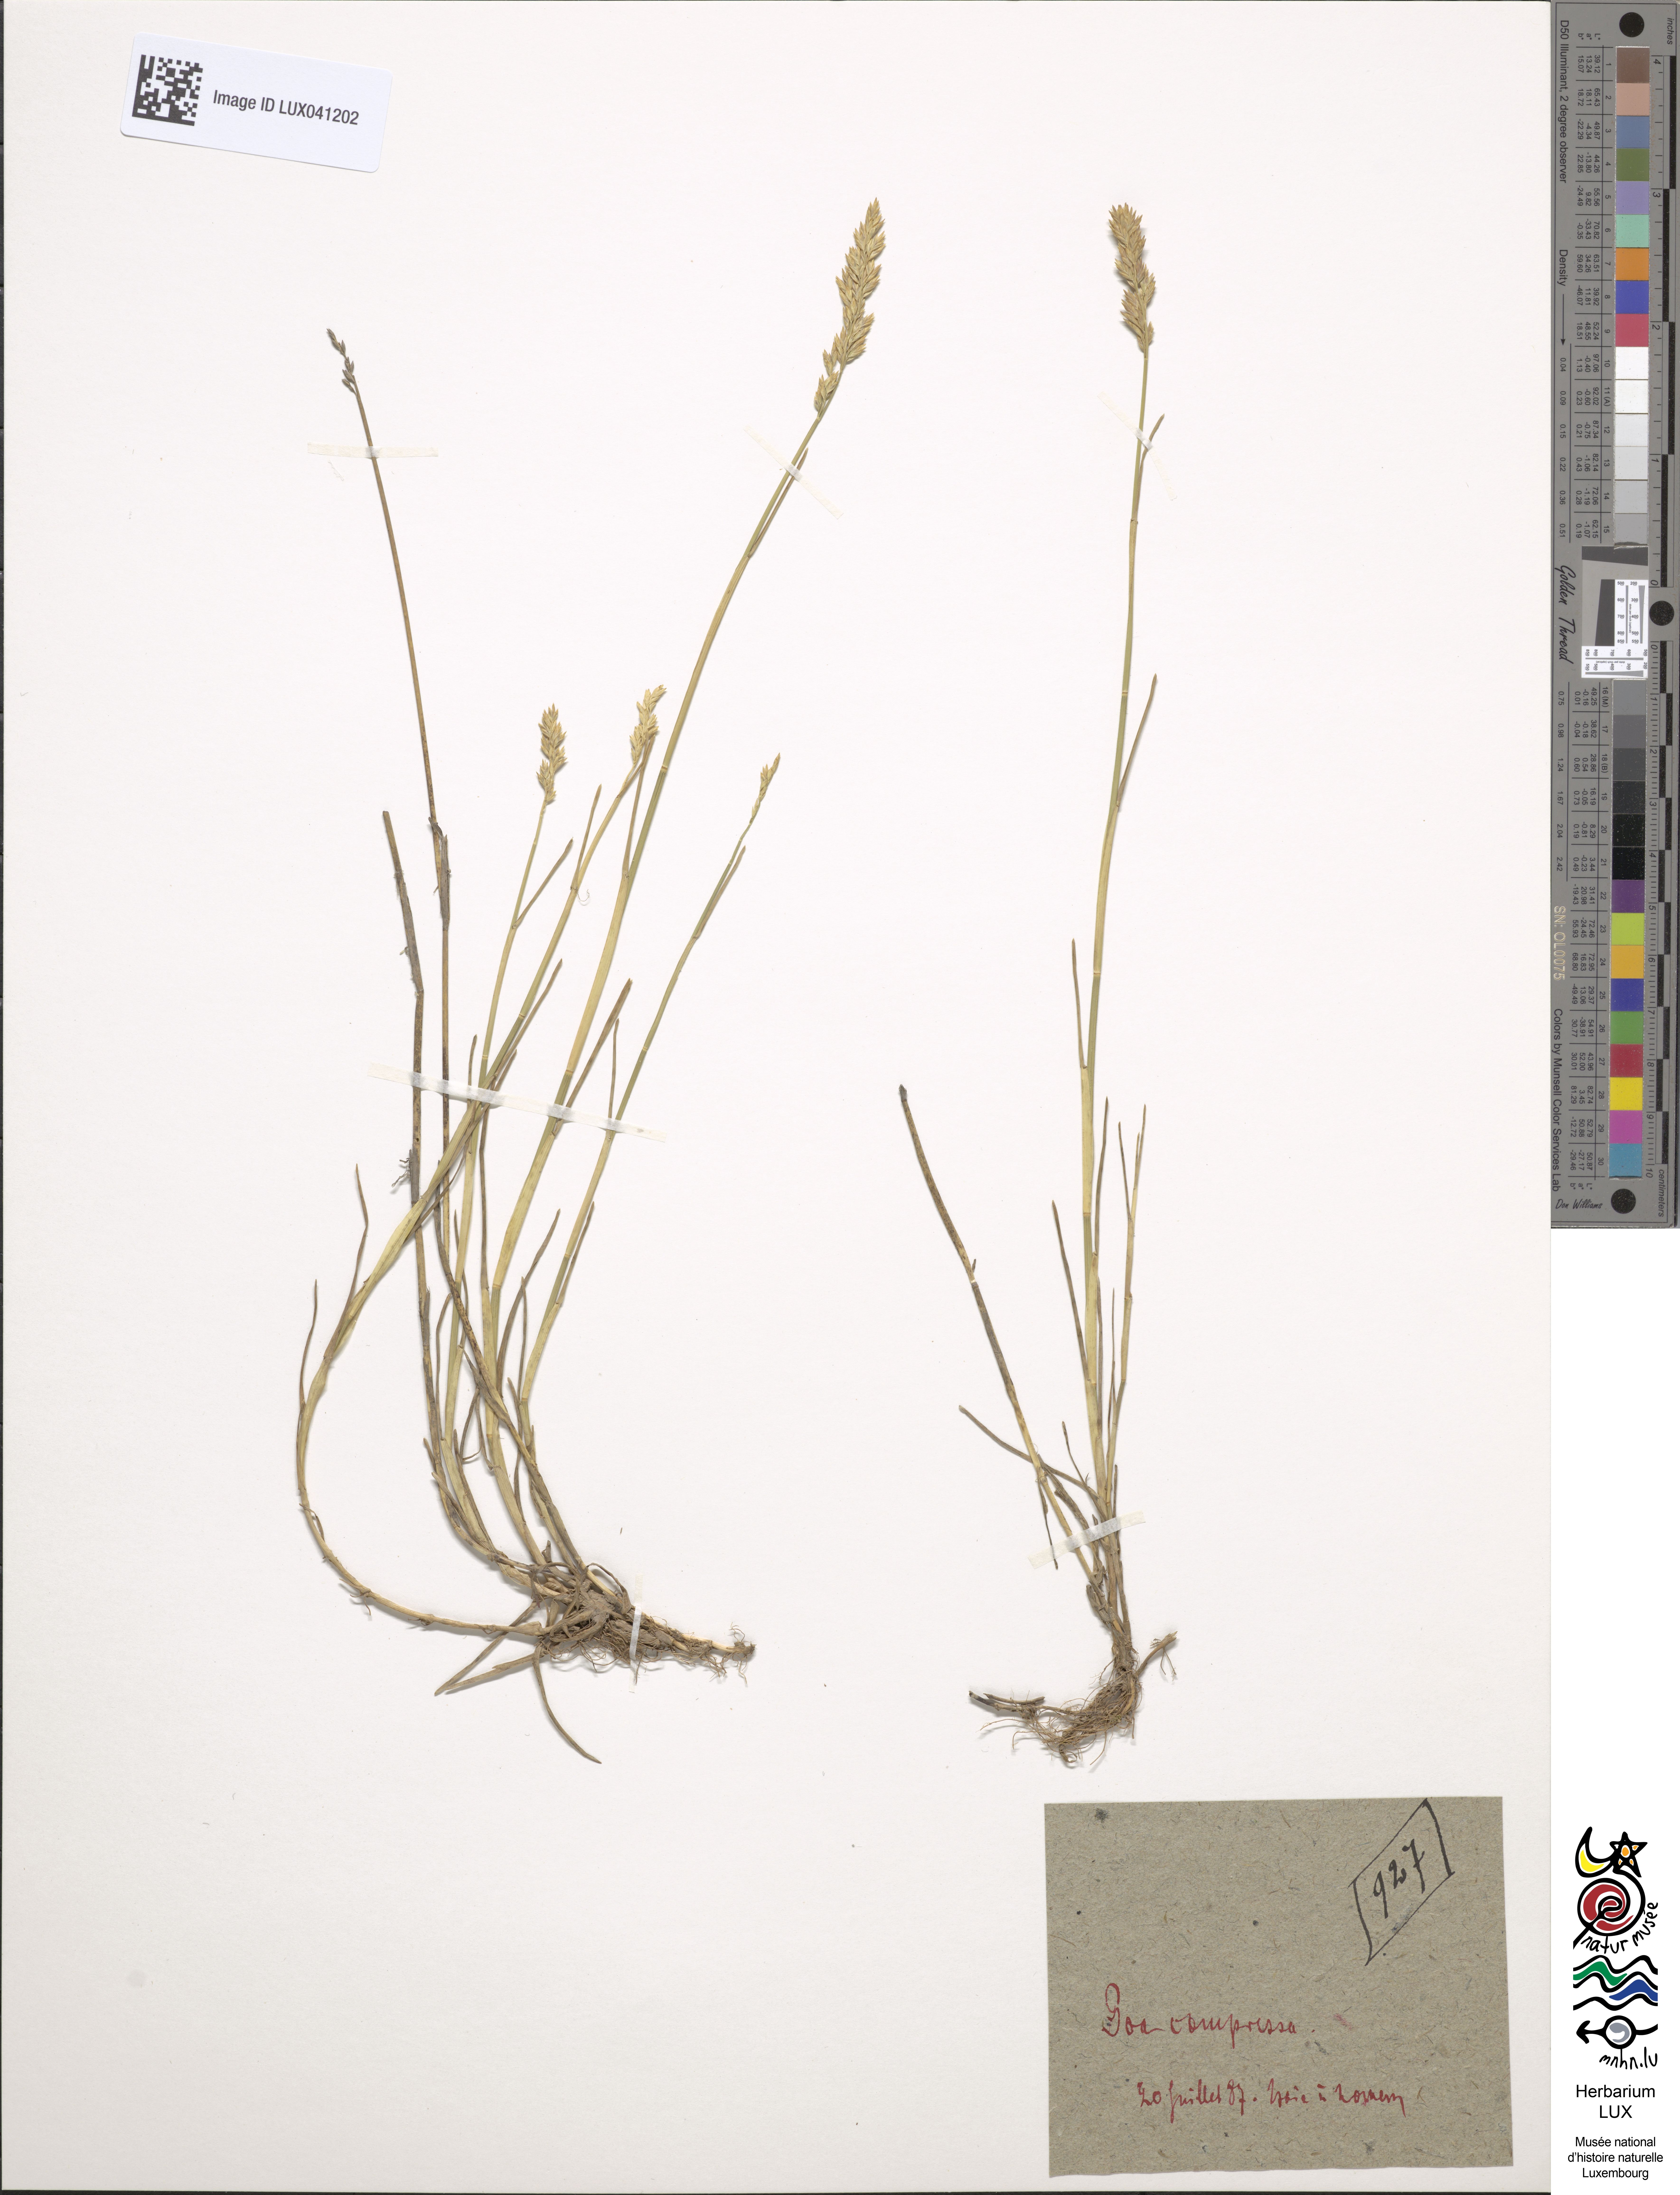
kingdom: Plantae
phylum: Tracheophyta
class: Liliopsida
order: Poales
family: Poaceae
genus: Poa
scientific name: Poa compressa
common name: Canada bluegrass
